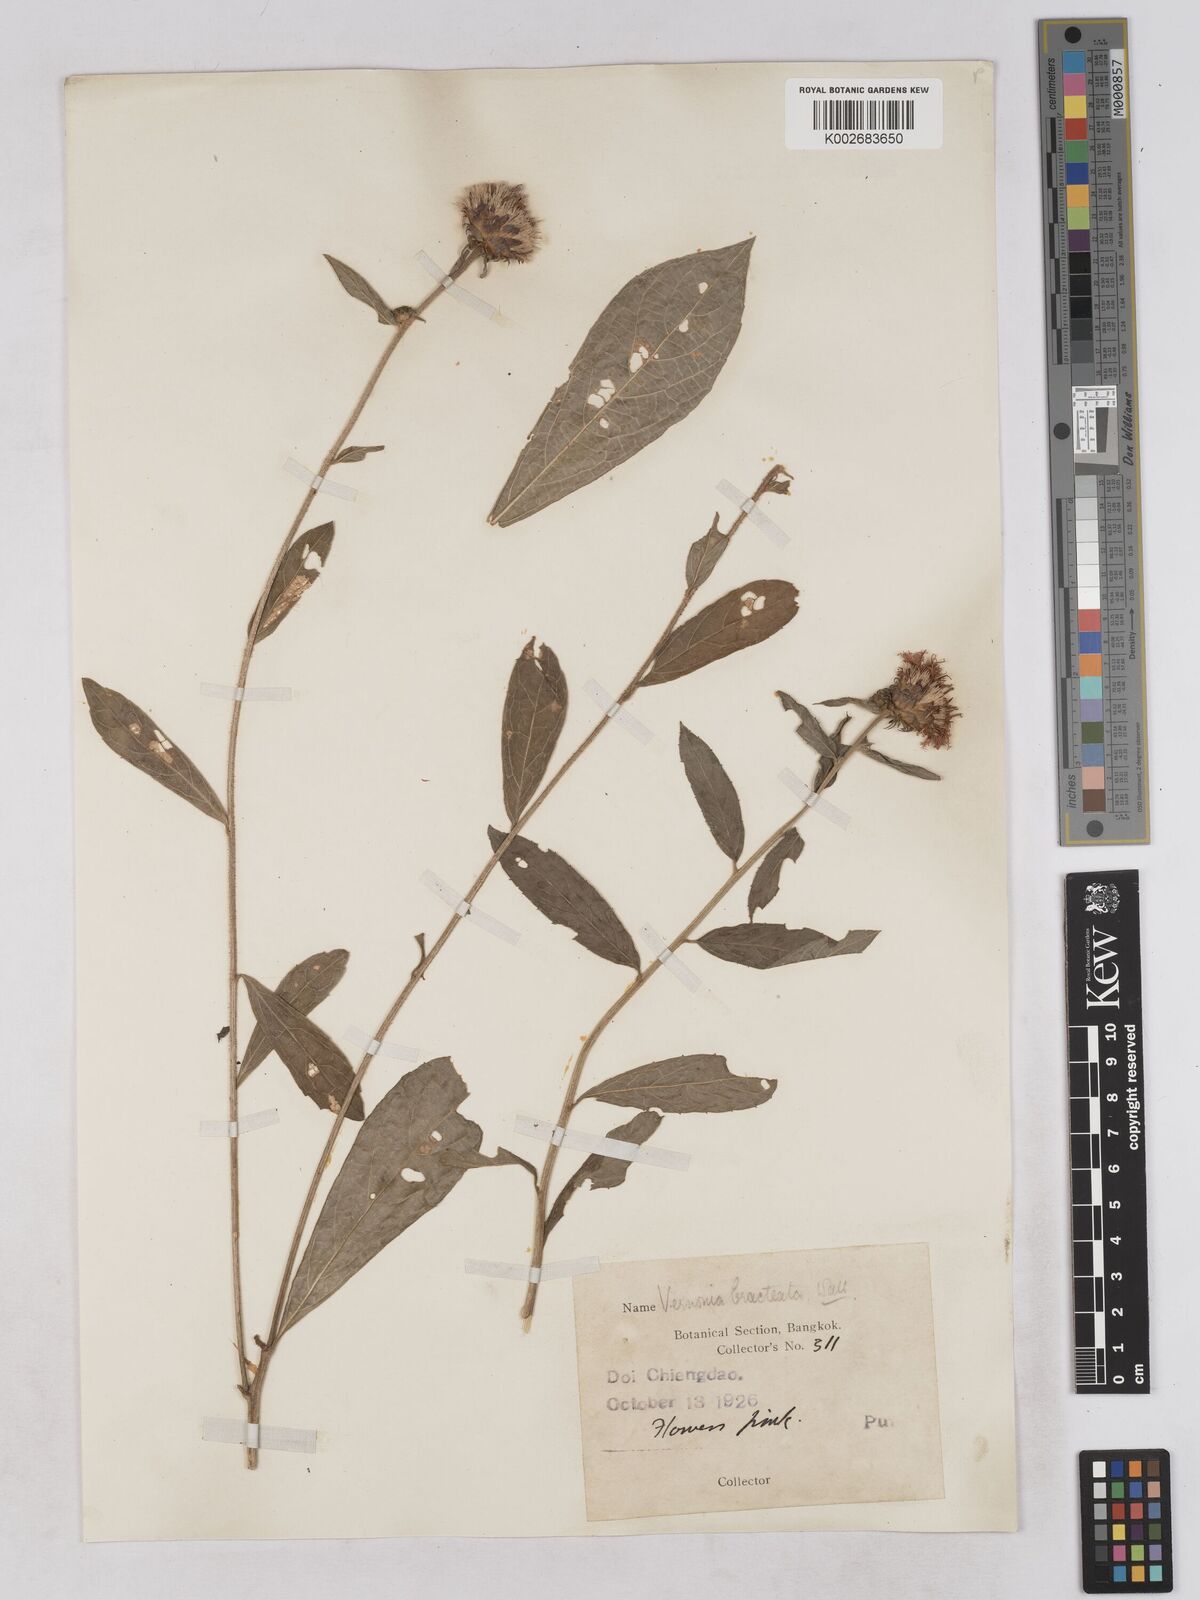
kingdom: Plantae
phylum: Tracheophyta
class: Magnoliopsida
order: Asterales
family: Asteraceae
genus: Acilepis
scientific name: Acilepis silhetensis
